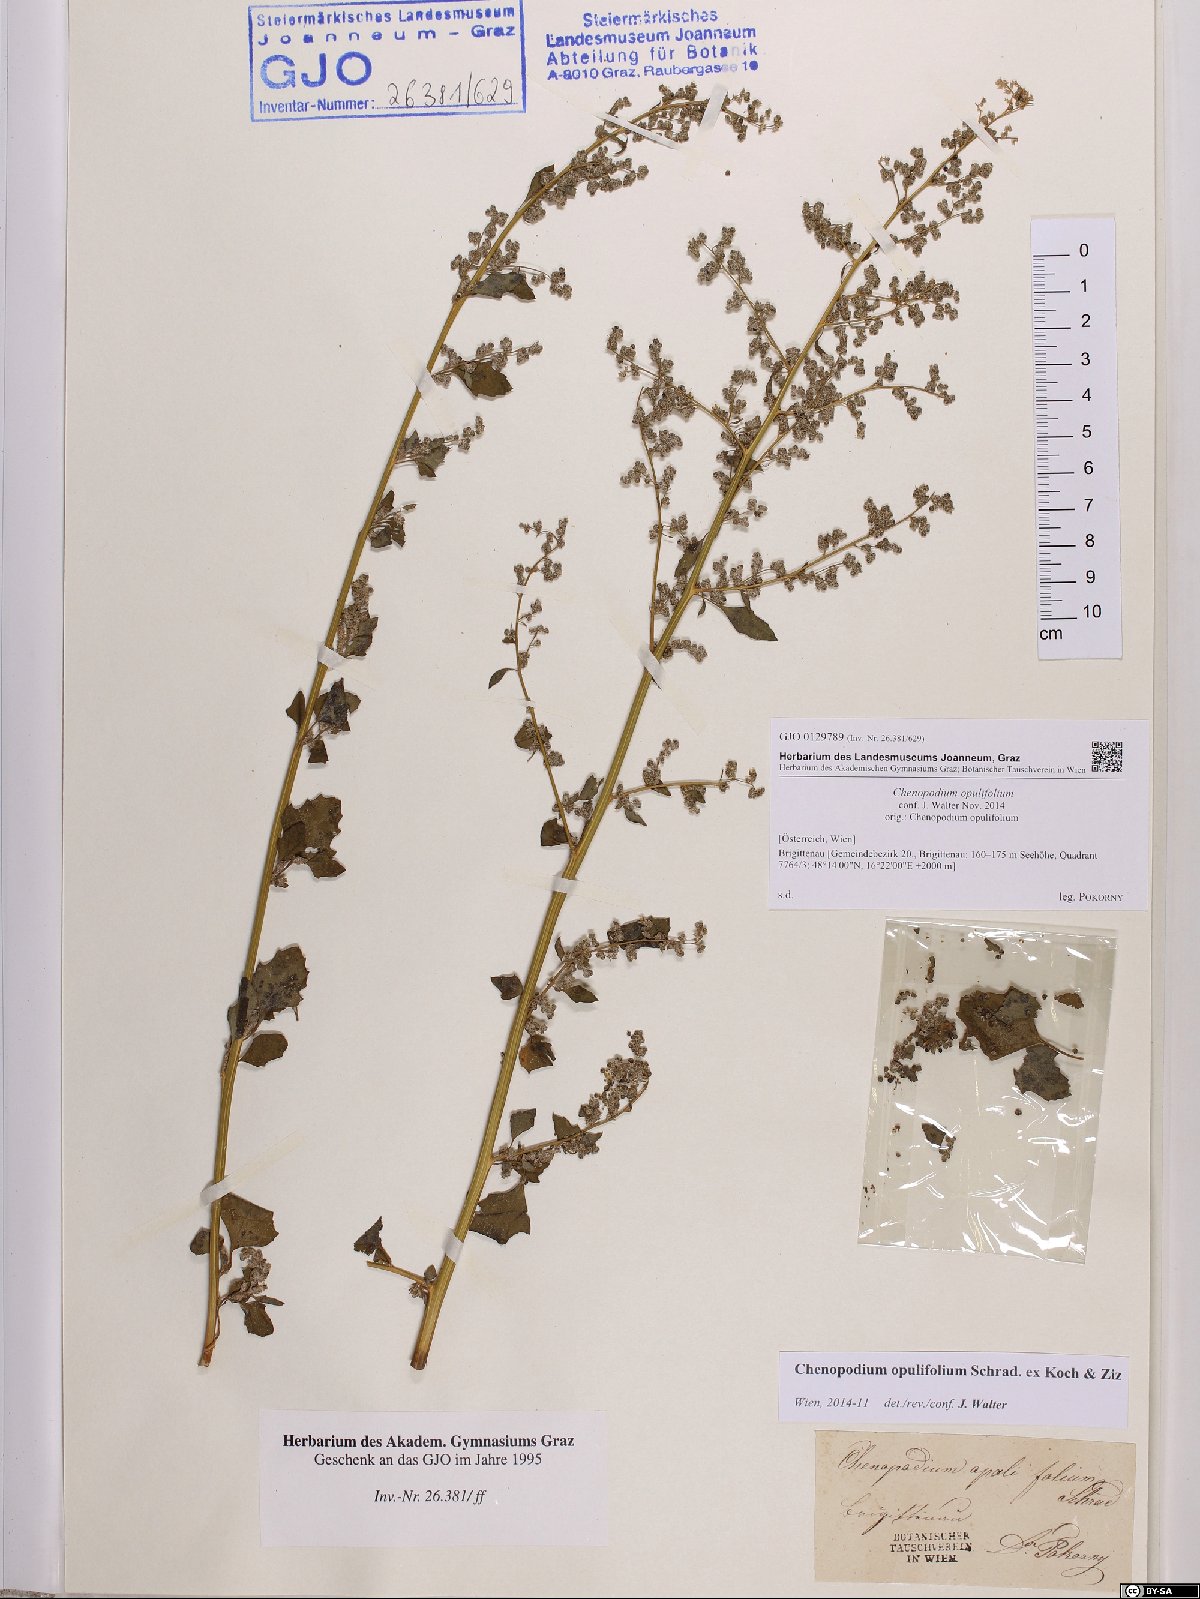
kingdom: Plantae
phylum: Tracheophyta
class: Magnoliopsida
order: Caryophyllales
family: Amaranthaceae
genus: Chenopodium
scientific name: Chenopodium opulifolium
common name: Grey goosefoot
